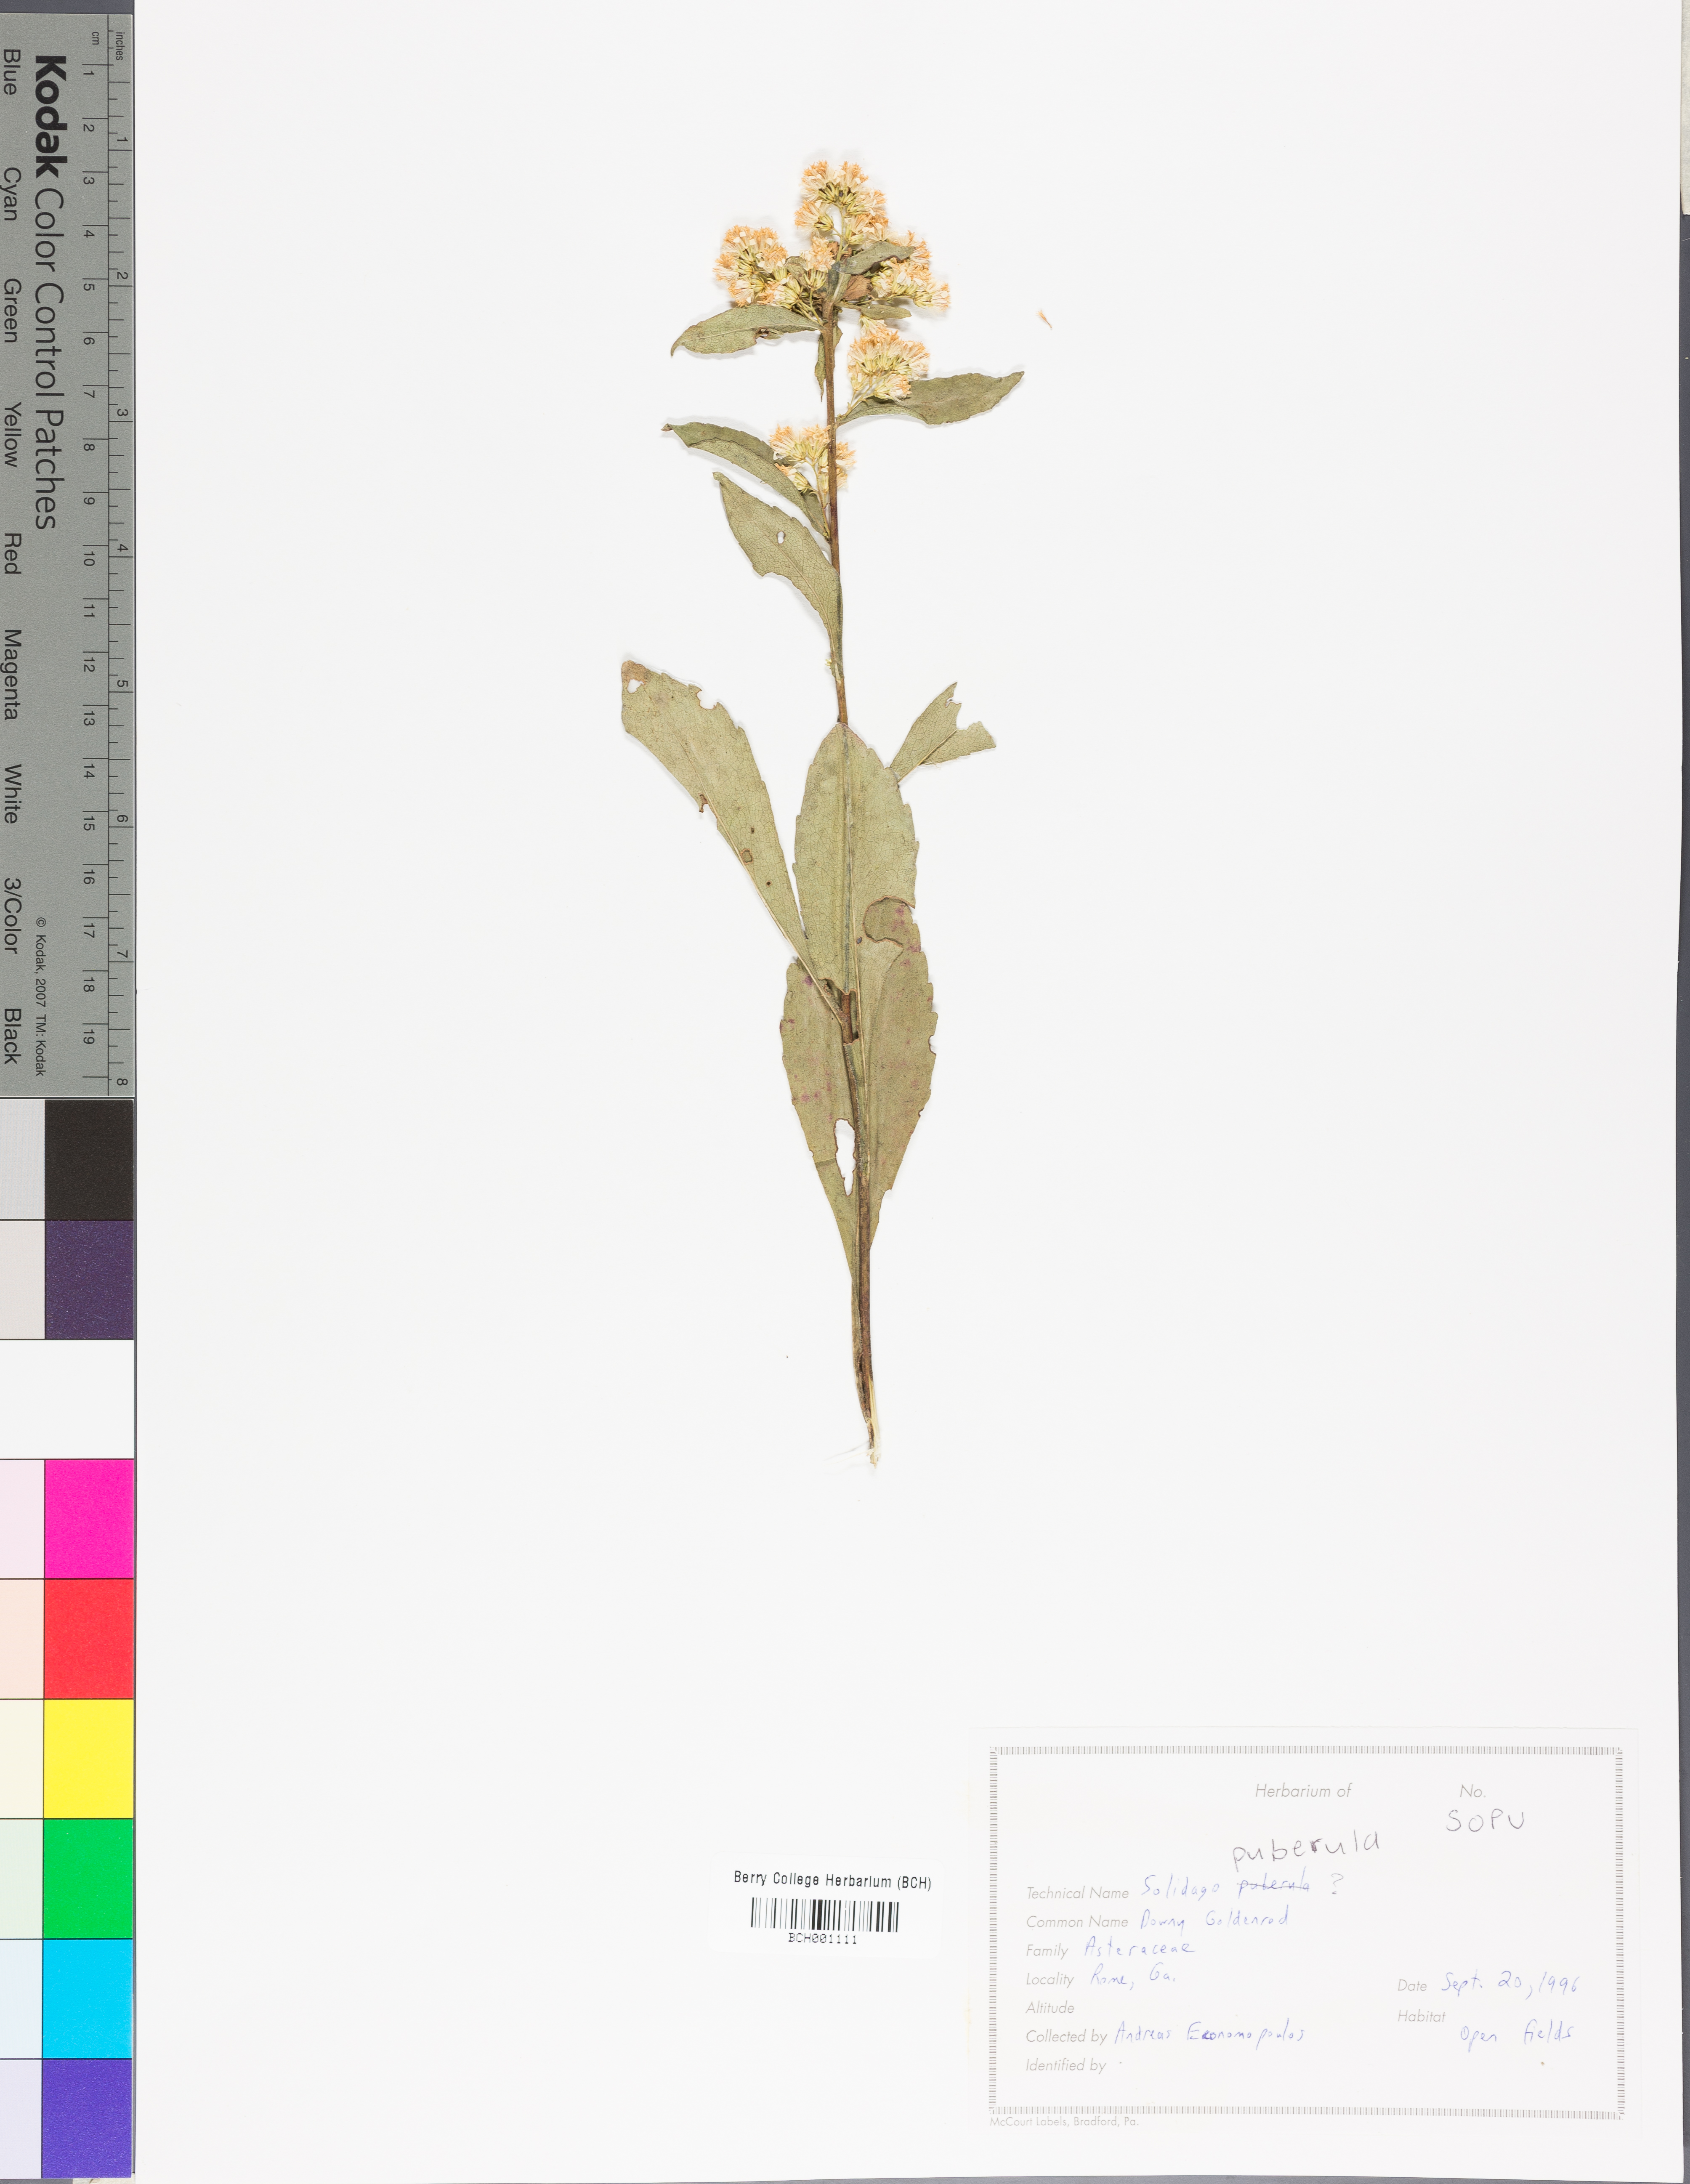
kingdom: Plantae
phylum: Tracheophyta
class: Magnoliopsida
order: Asterales
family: Asteraceae
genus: Solidago
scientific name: Solidago puberula
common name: Downy goldenrod
